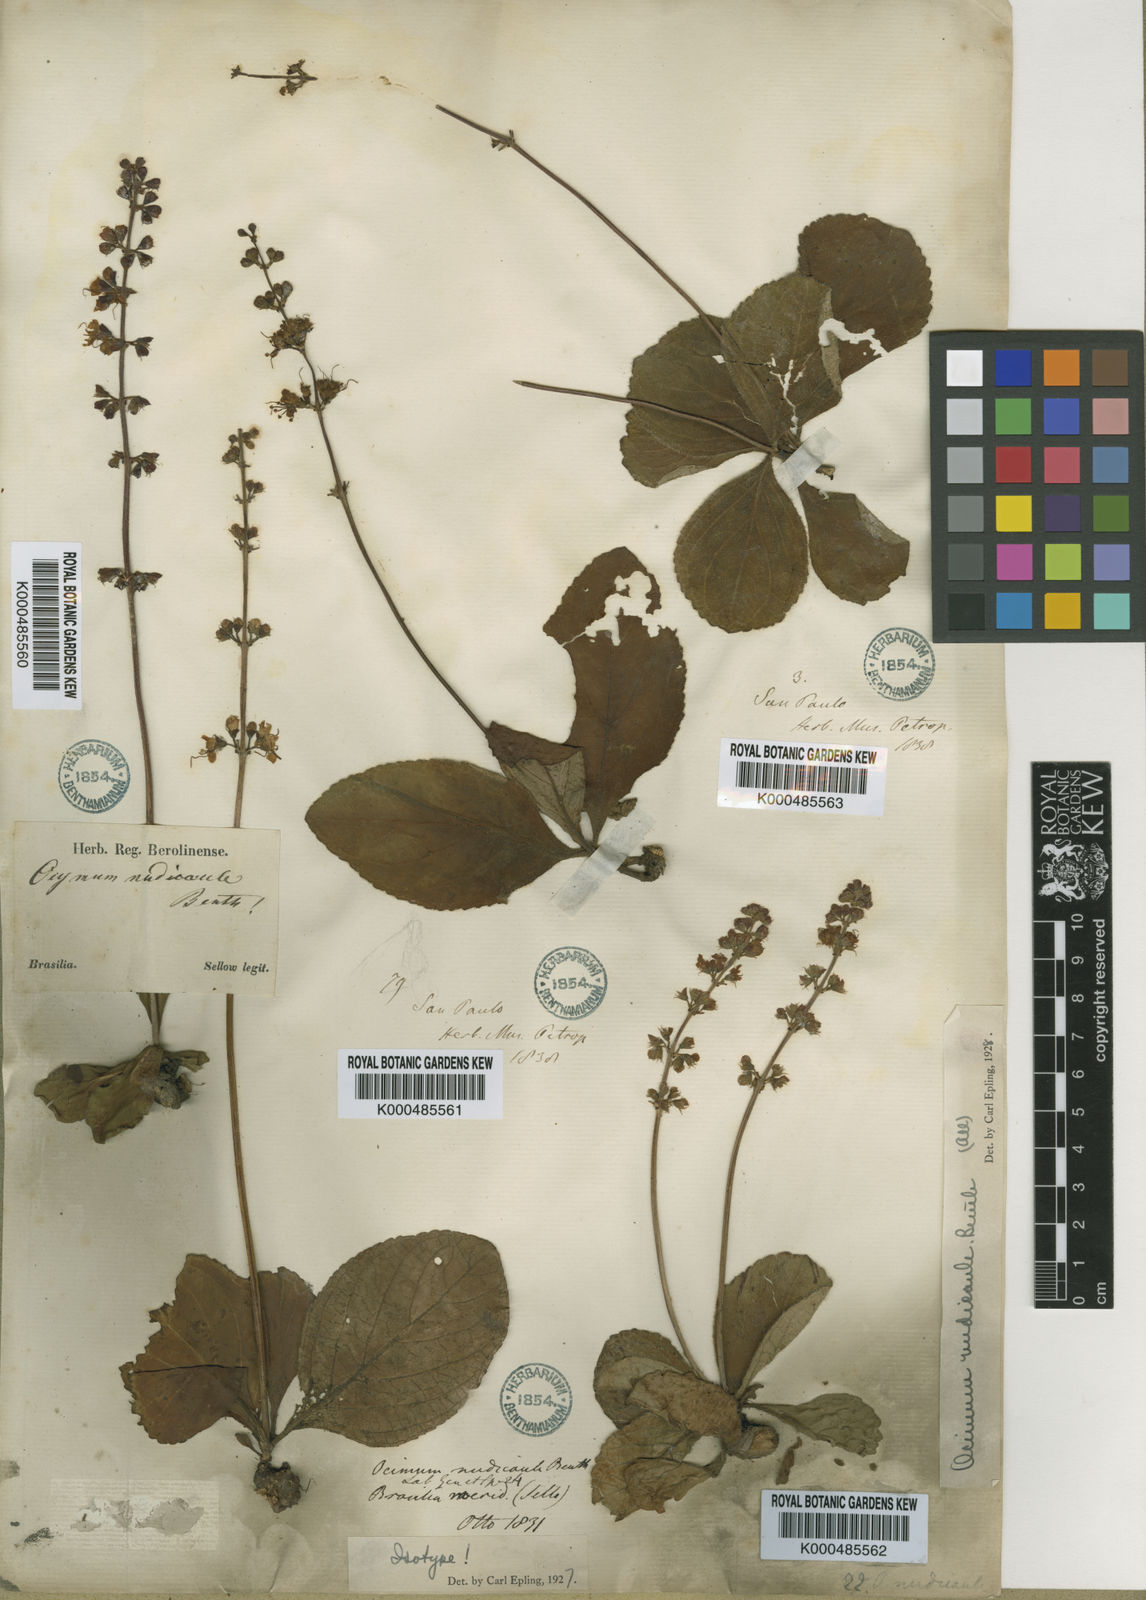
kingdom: Plantae
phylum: Tracheophyta
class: Magnoliopsida
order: Lamiales
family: Lamiaceae
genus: Ocimum
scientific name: Ocimum nudicaule
